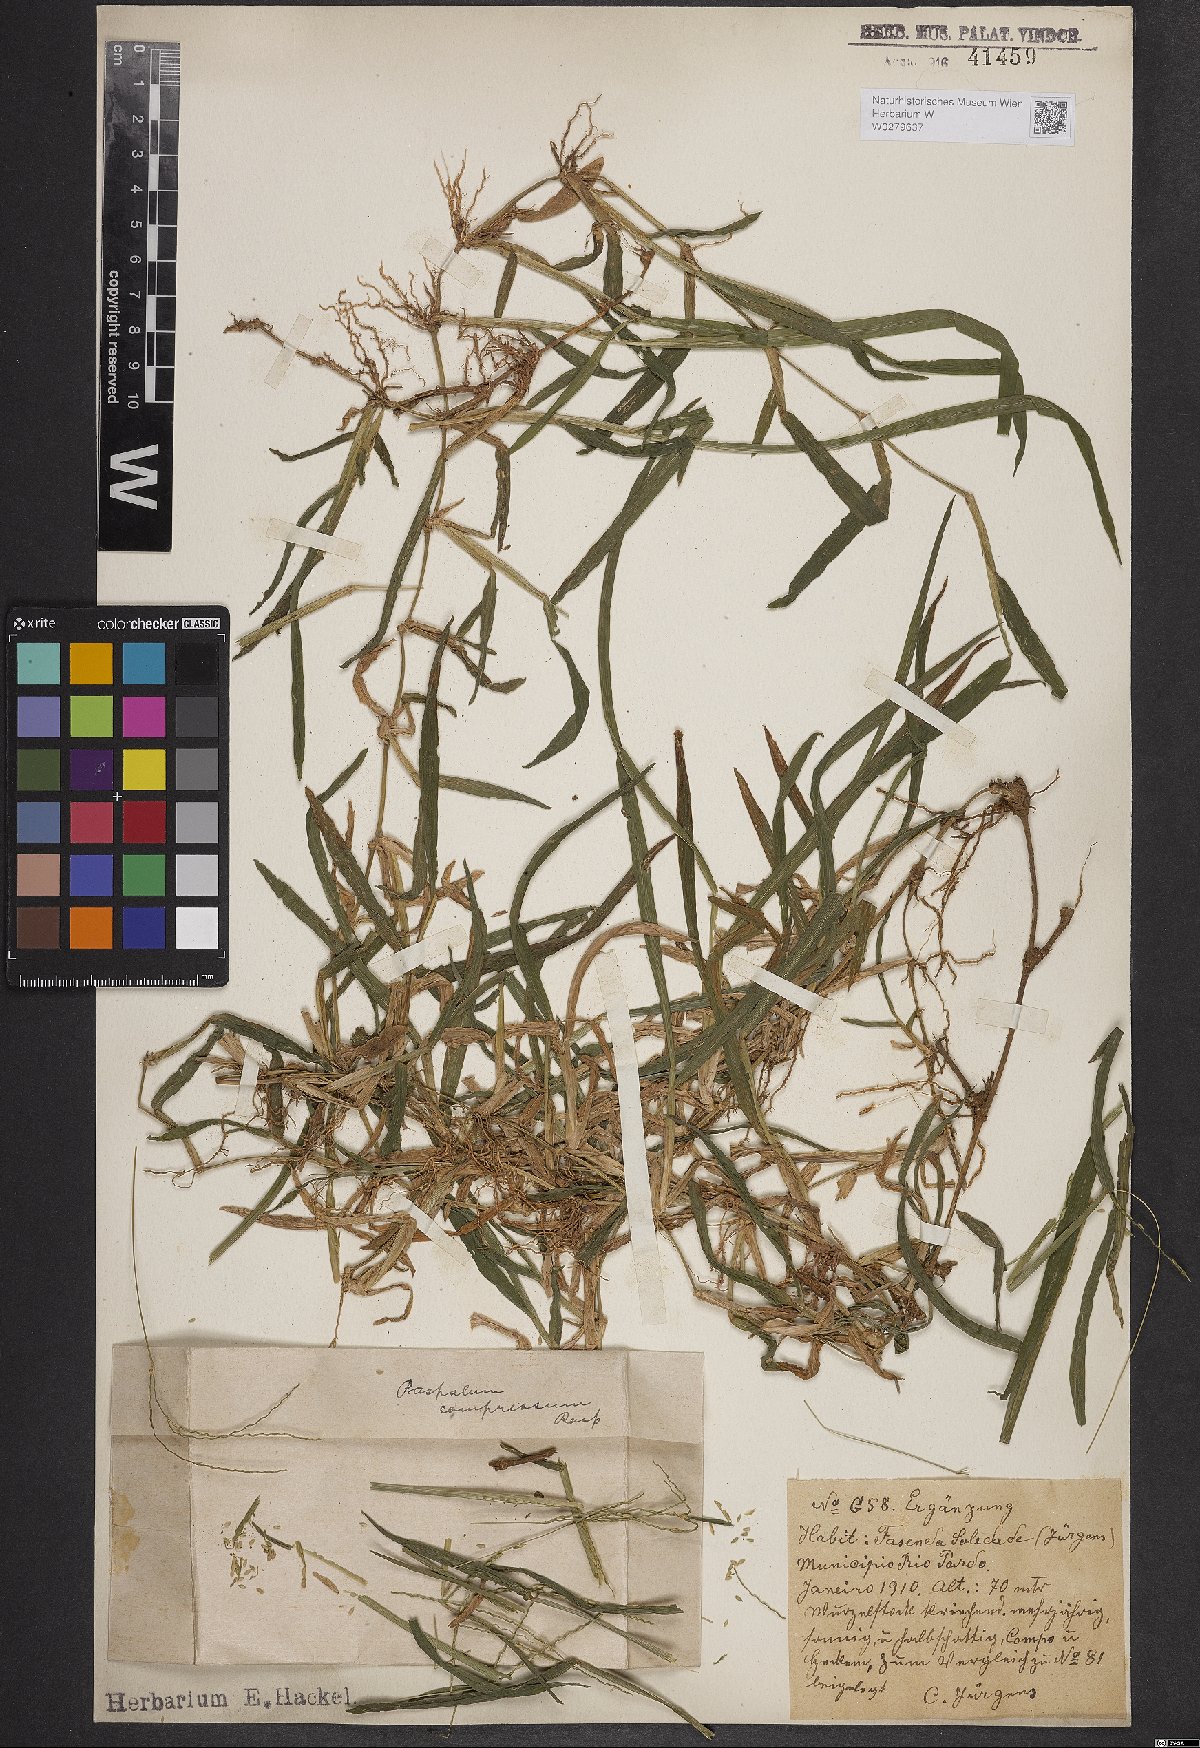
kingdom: Plantae
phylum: Tracheophyta
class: Liliopsida
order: Poales
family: Poaceae
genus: Axonopus
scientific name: Axonopus compressus
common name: American carpet grass
